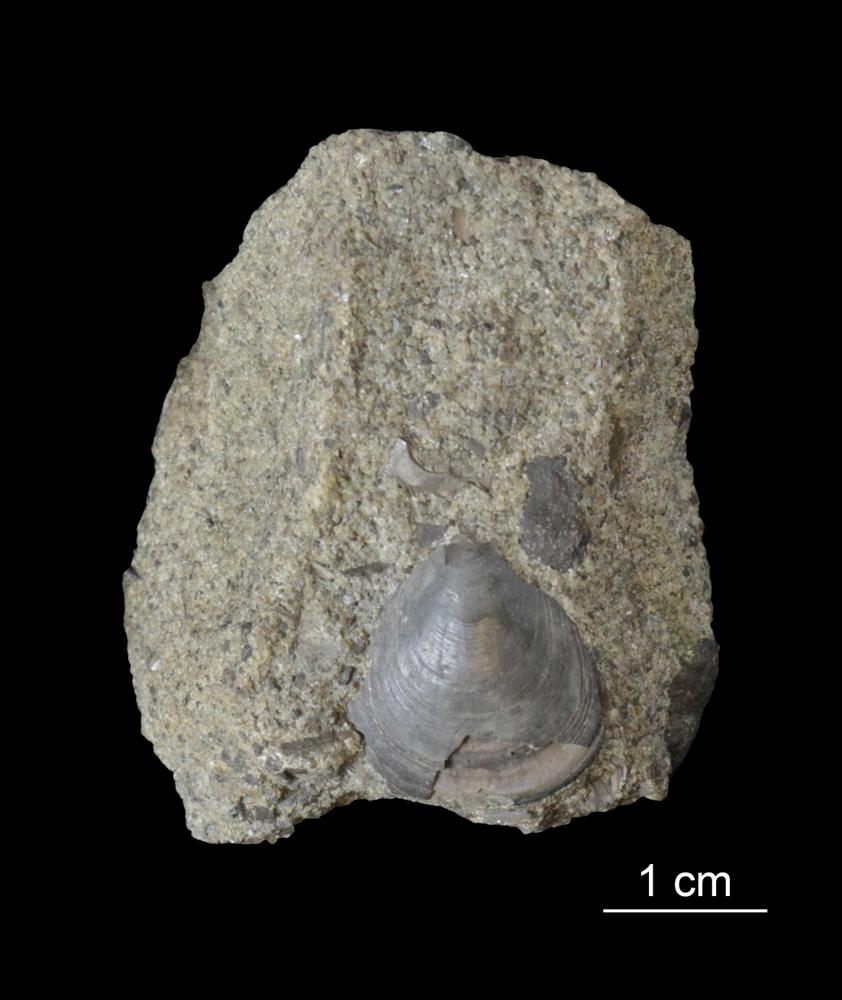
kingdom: Animalia
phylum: Arthropoda
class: Trilobita
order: Asaphida
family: Asaphidae
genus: Asaphus
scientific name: Asaphus ornatus
